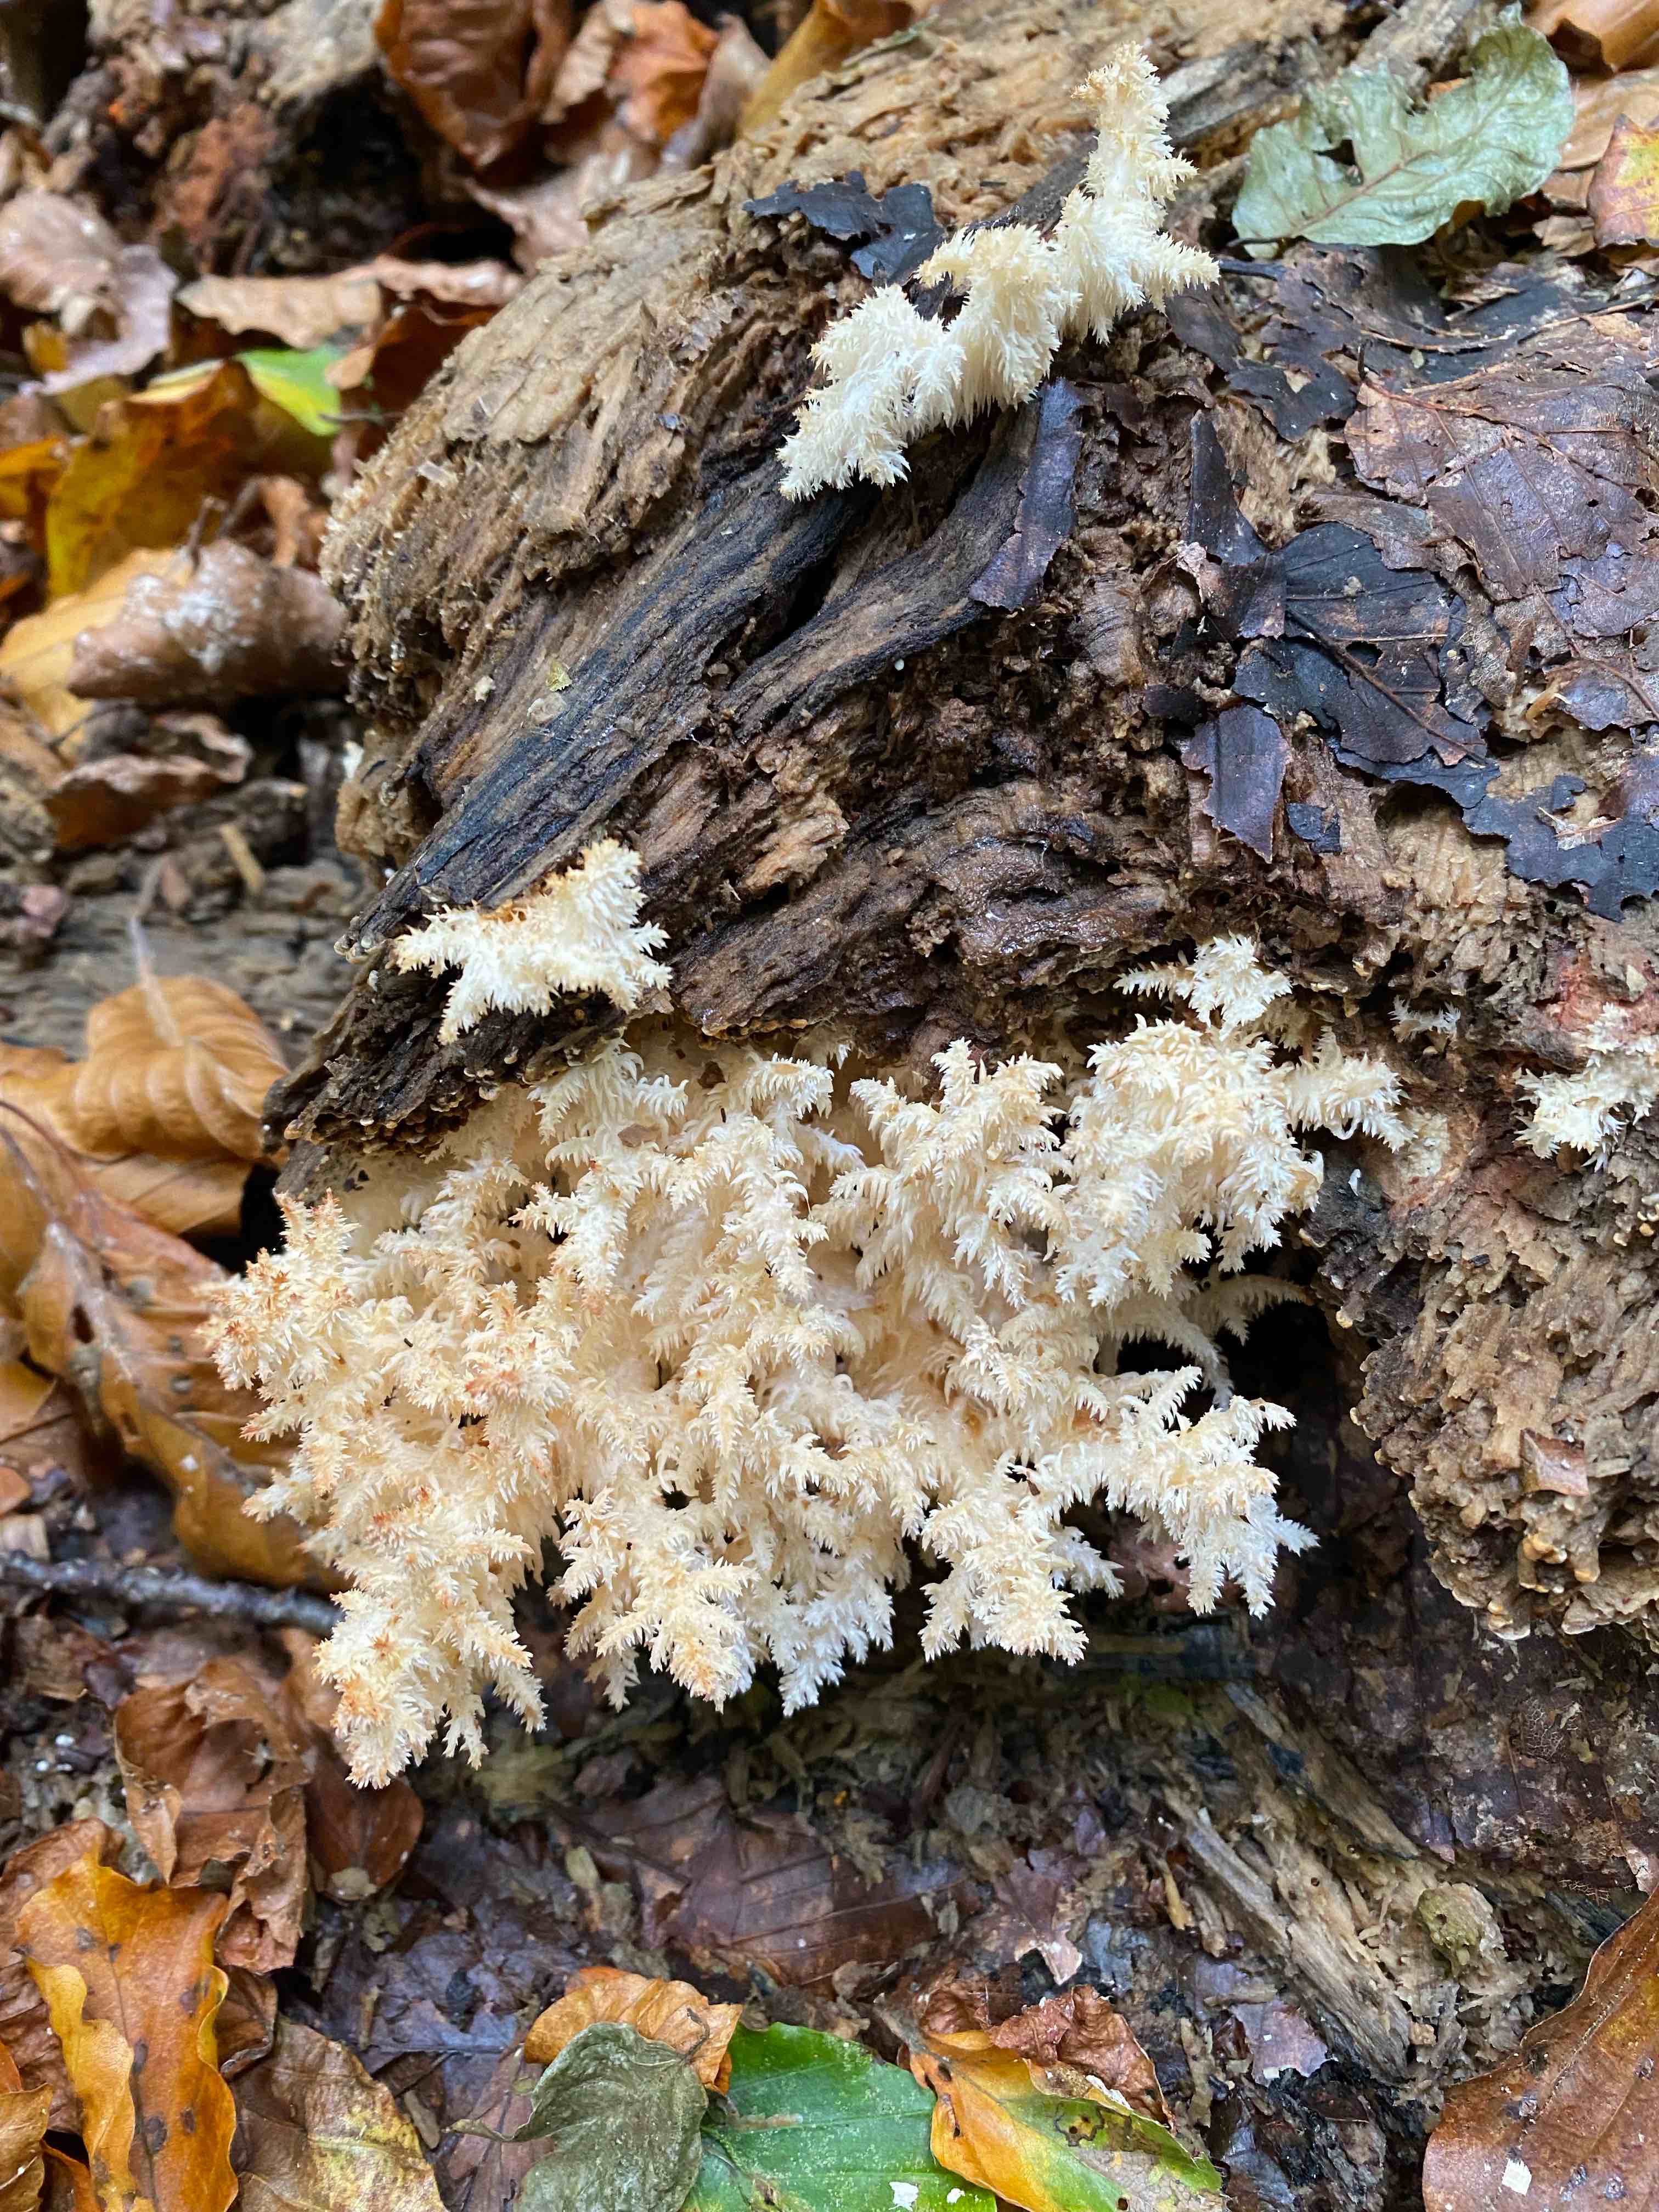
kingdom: Fungi
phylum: Basidiomycota
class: Agaricomycetes
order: Russulales
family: Hericiaceae
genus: Hericium
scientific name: Hericium coralloides
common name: koralpigsvamp
